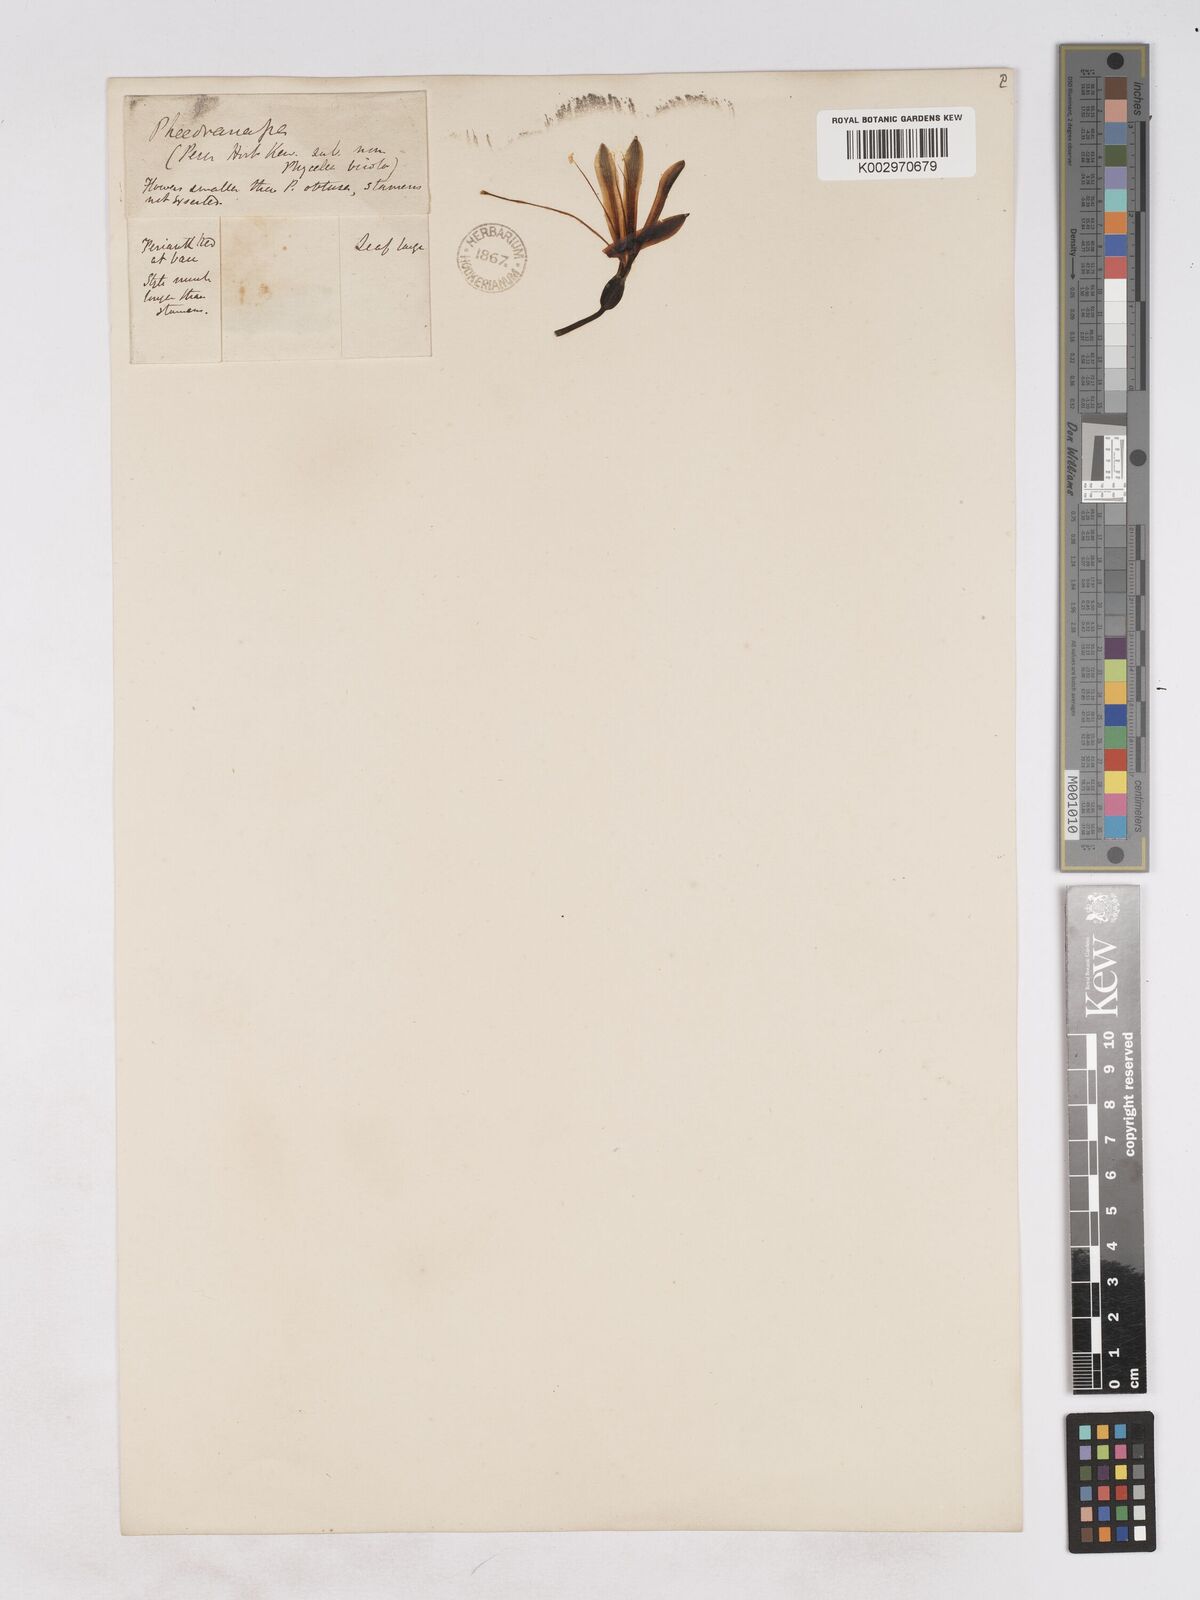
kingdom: Plantae
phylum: Tracheophyta
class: Liliopsida
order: Asparagales
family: Amaryllidaceae
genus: Phaedranassa
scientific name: Phaedranassa dubia
